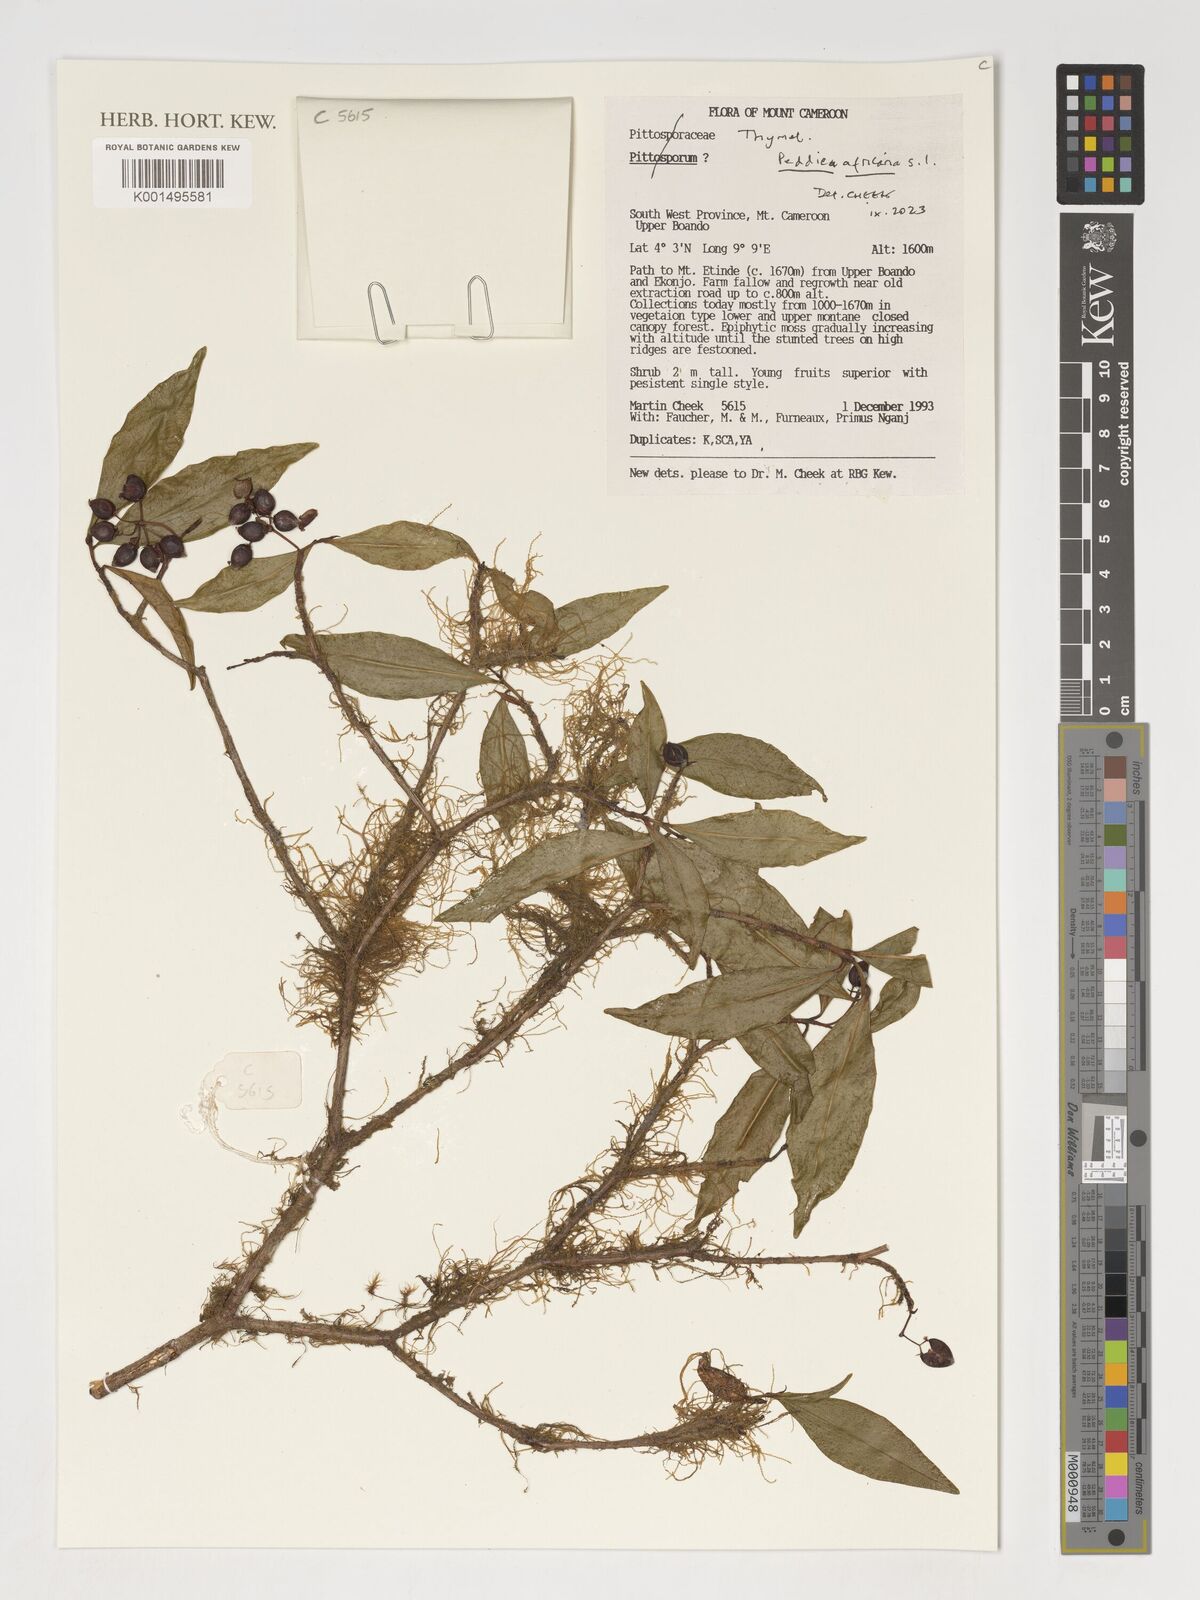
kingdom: Plantae
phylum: Tracheophyta
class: Magnoliopsida
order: Malvales
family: Thymelaeaceae
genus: Peddiea
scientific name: Peddiea africana
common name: Poison olive
